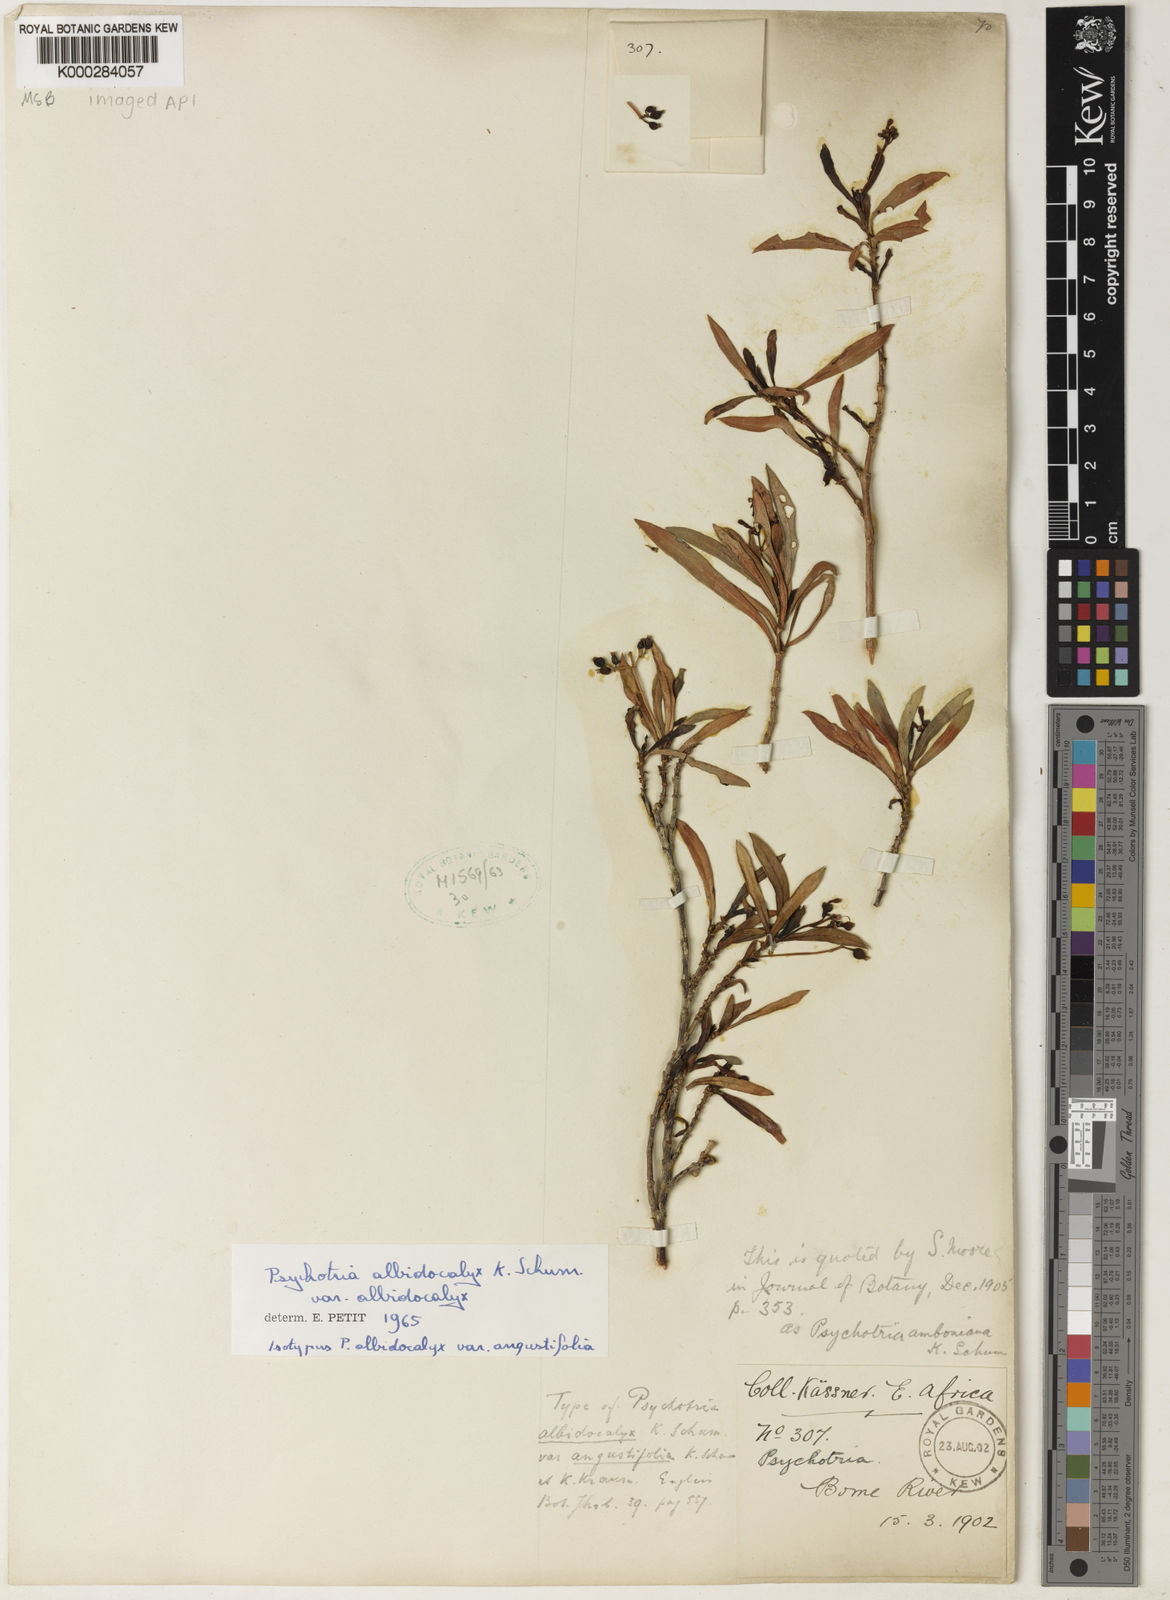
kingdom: Plantae
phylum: Tracheophyta
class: Magnoliopsida
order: Gentianales
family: Rubiaceae
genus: Psychotria
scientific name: Psychotria amboniana
